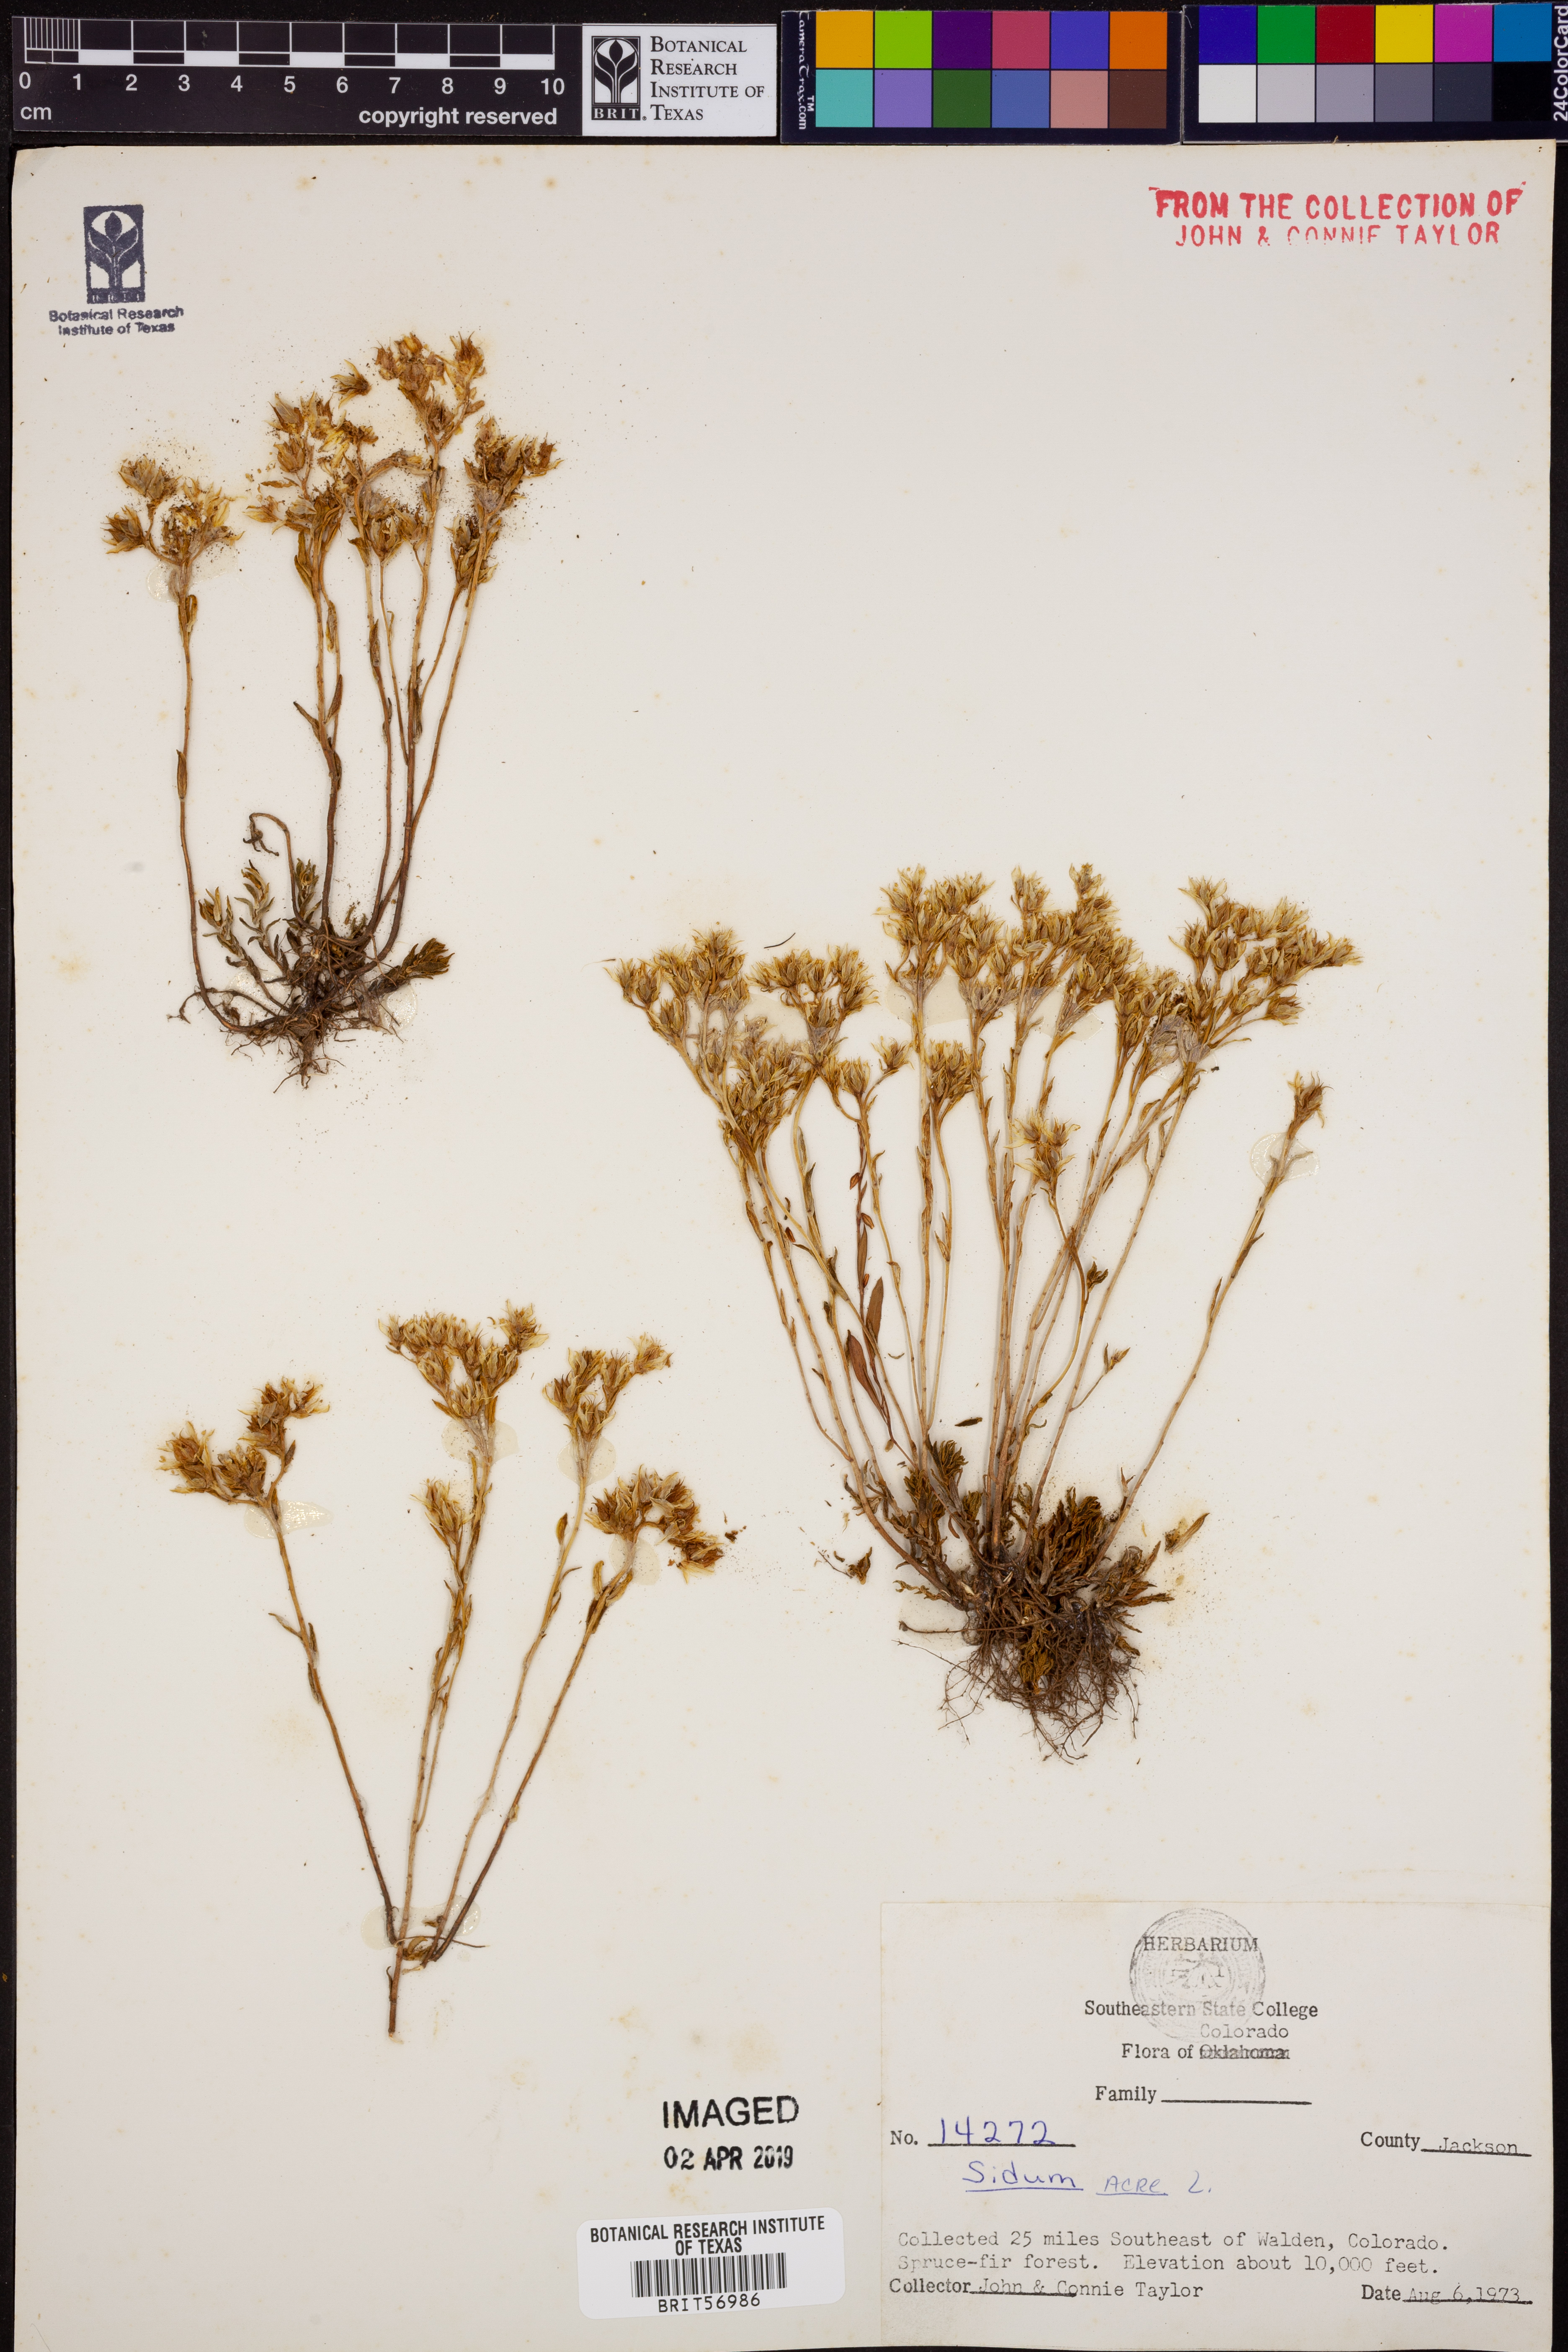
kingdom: Plantae
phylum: Tracheophyta
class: Magnoliopsida
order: Saxifragales
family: Crassulaceae
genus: Sedum
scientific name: Sedum acre
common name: Biting stonecrop
